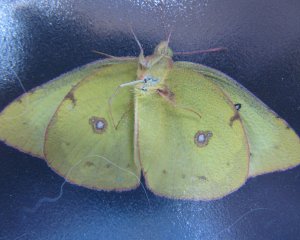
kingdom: Animalia
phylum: Arthropoda
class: Insecta
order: Lepidoptera
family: Pieridae
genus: Colias
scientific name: Colias philodice
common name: Clouded Sulphur
